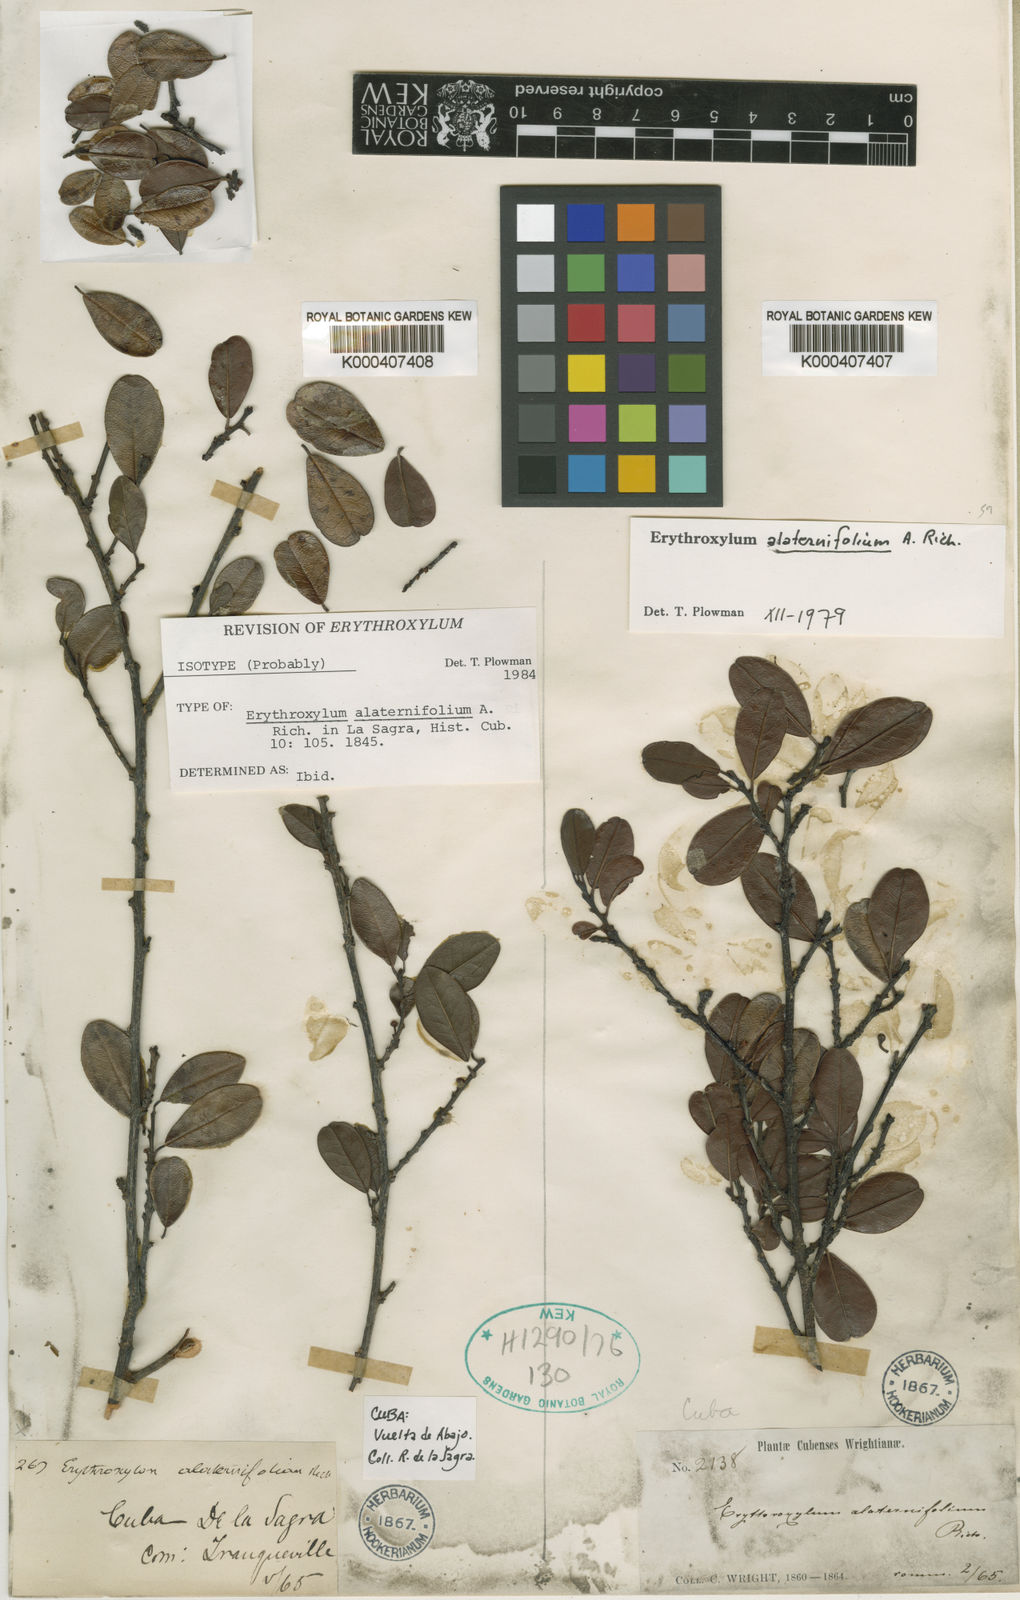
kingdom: Plantae
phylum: Tracheophyta
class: Magnoliopsida
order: Malpighiales
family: Erythroxylaceae
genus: Erythroxylum
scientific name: Erythroxylum alaternifolium
